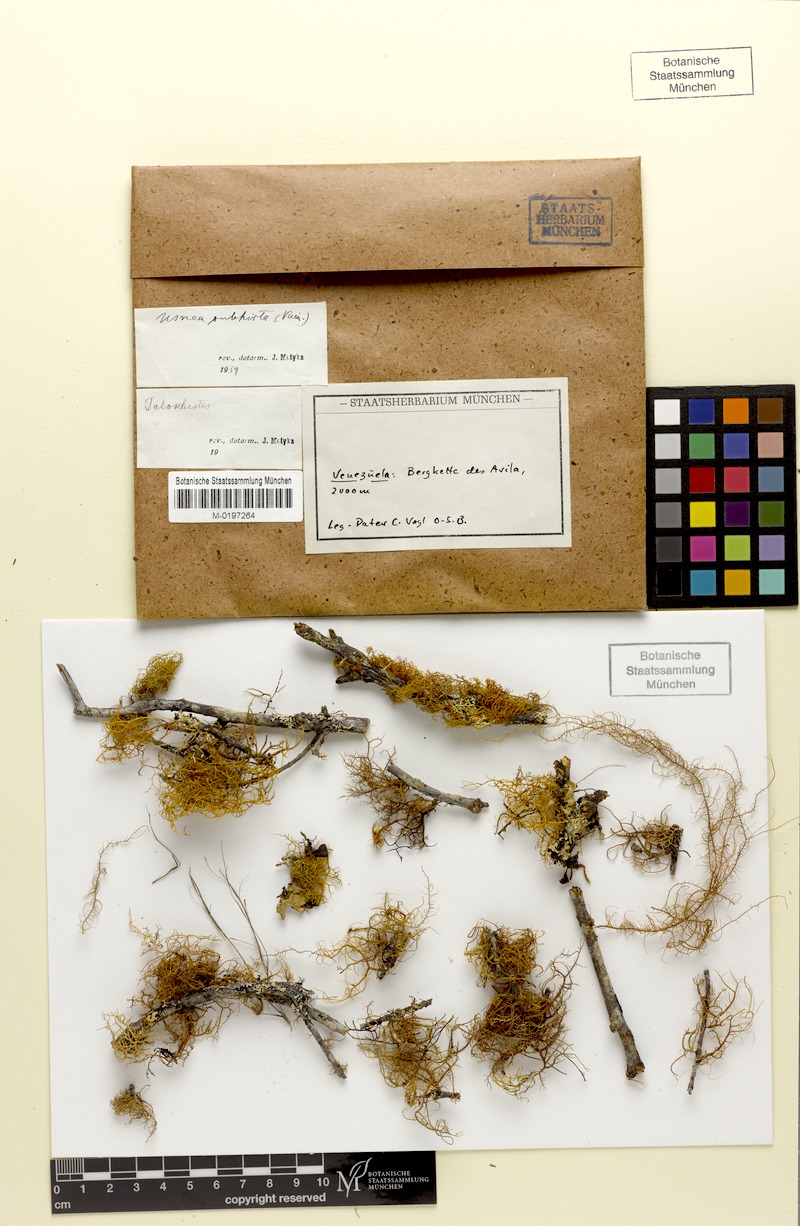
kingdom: Fungi
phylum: Ascomycota
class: Lecanoromycetes
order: Lecanorales
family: Parmeliaceae
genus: Usnea
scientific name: Usnea subhirta
